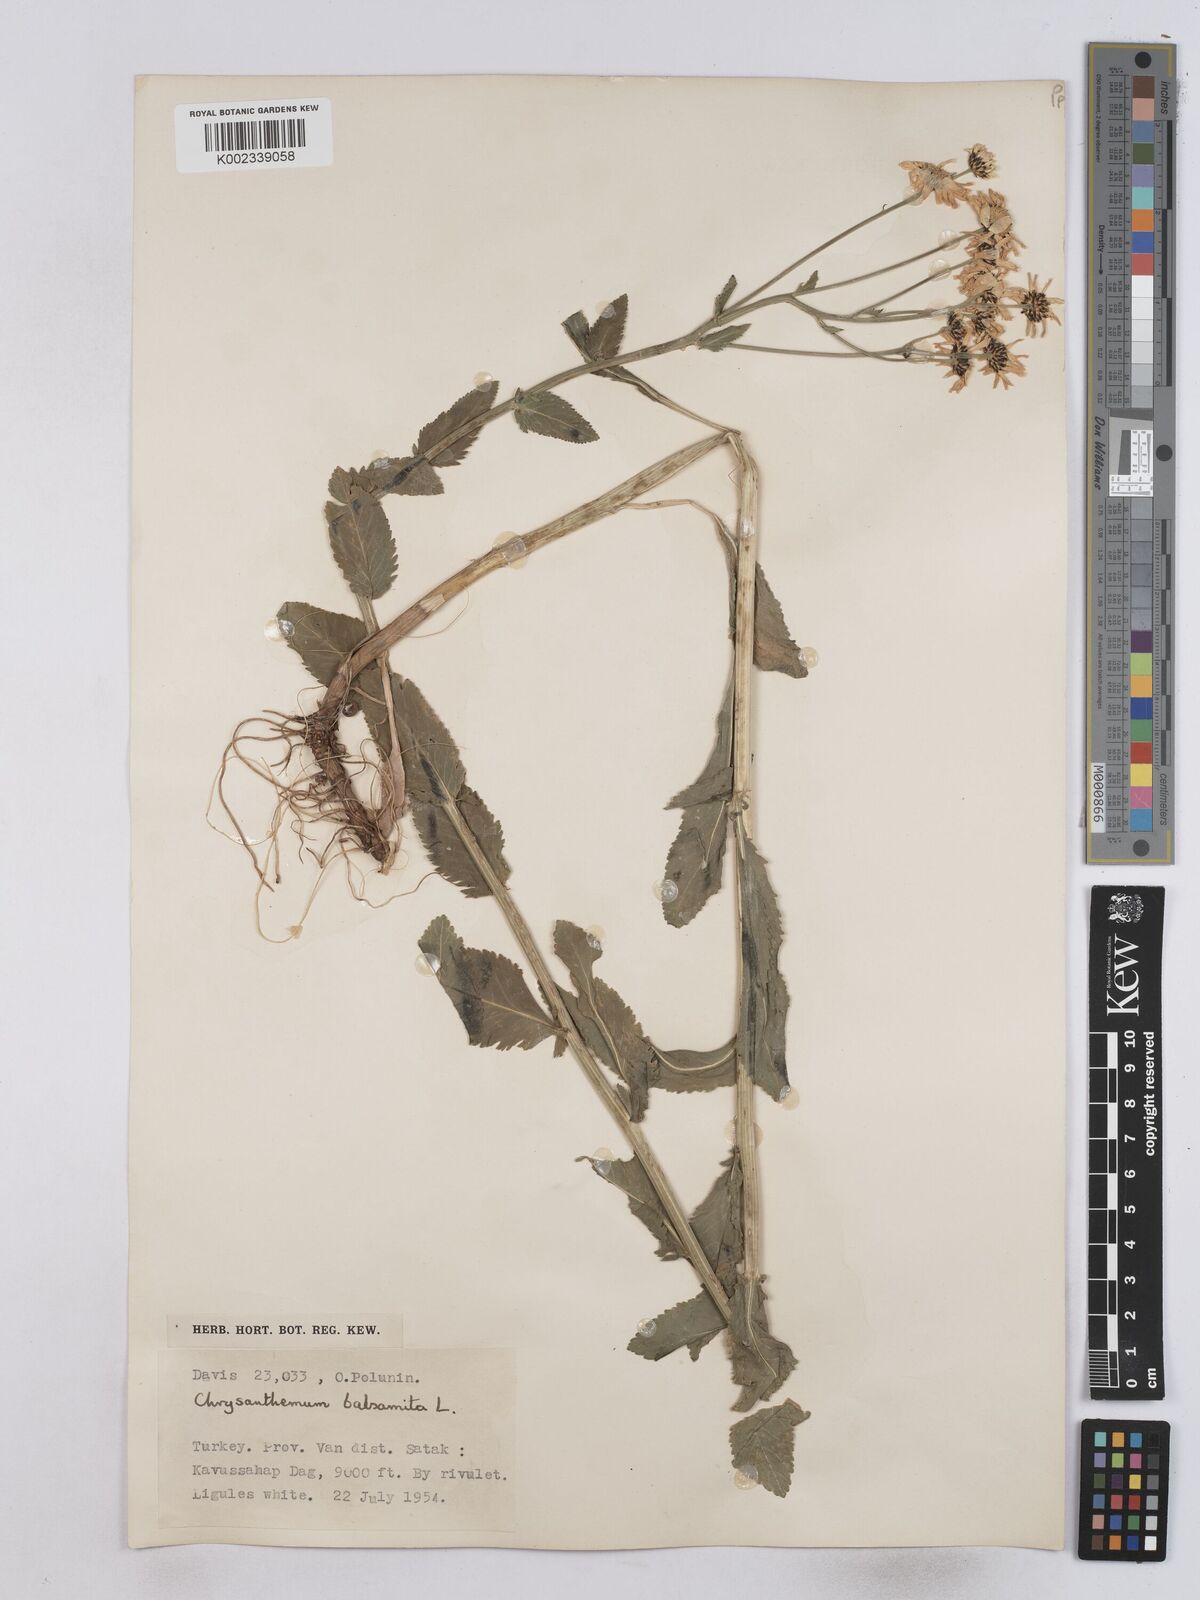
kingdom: Plantae
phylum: Tracheophyta
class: Magnoliopsida
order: Asterales
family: Asteraceae
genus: Tanacetum
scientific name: Tanacetum balsamita
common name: Costmary
